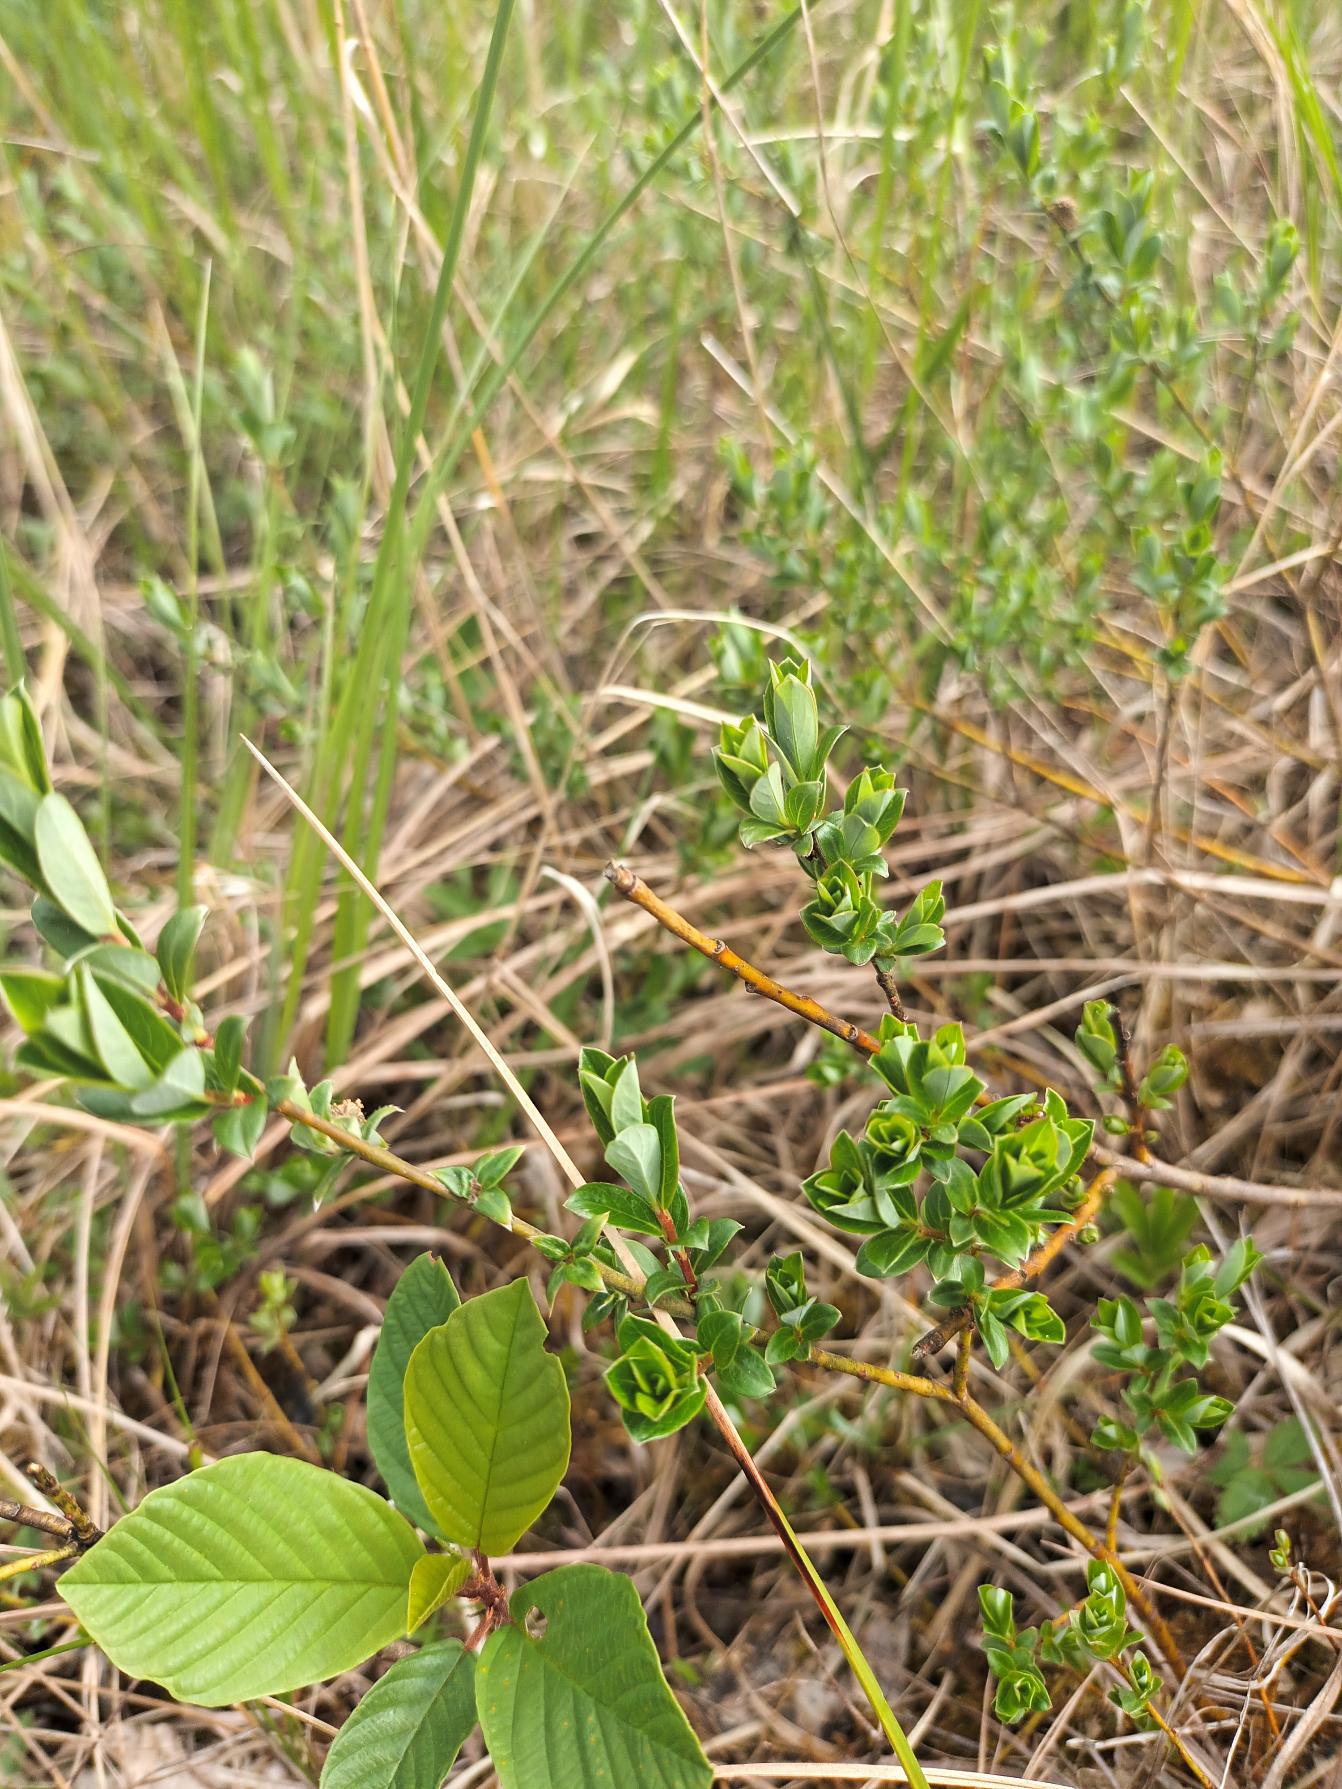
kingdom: Plantae
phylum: Tracheophyta
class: Magnoliopsida
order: Malpighiales
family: Salicaceae
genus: Salix
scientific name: Salix repens
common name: Krybende pil
